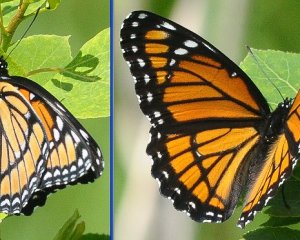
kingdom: Animalia
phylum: Arthropoda
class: Insecta
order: Lepidoptera
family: Nymphalidae
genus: Limenitis
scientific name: Limenitis archippus
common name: Viceroy
